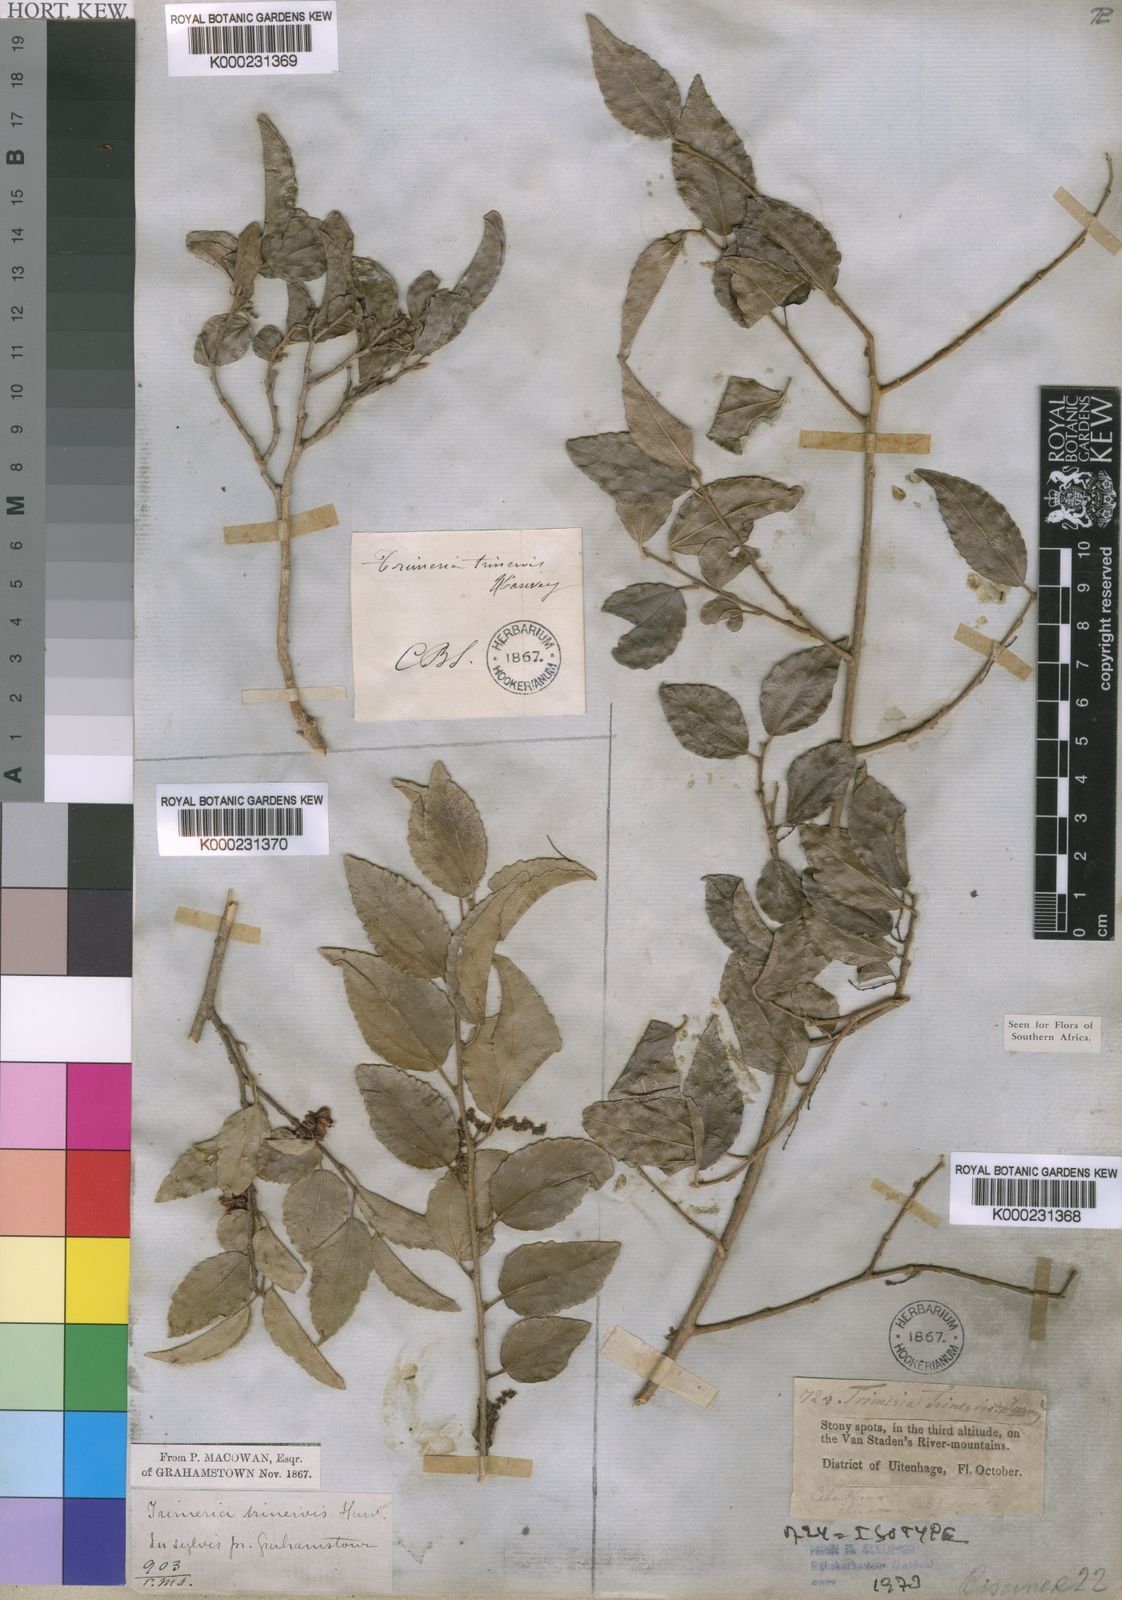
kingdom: Plantae
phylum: Tracheophyta
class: Magnoliopsida
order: Malpighiales
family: Salicaceae
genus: Trimeria
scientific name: Trimeria trinervis
